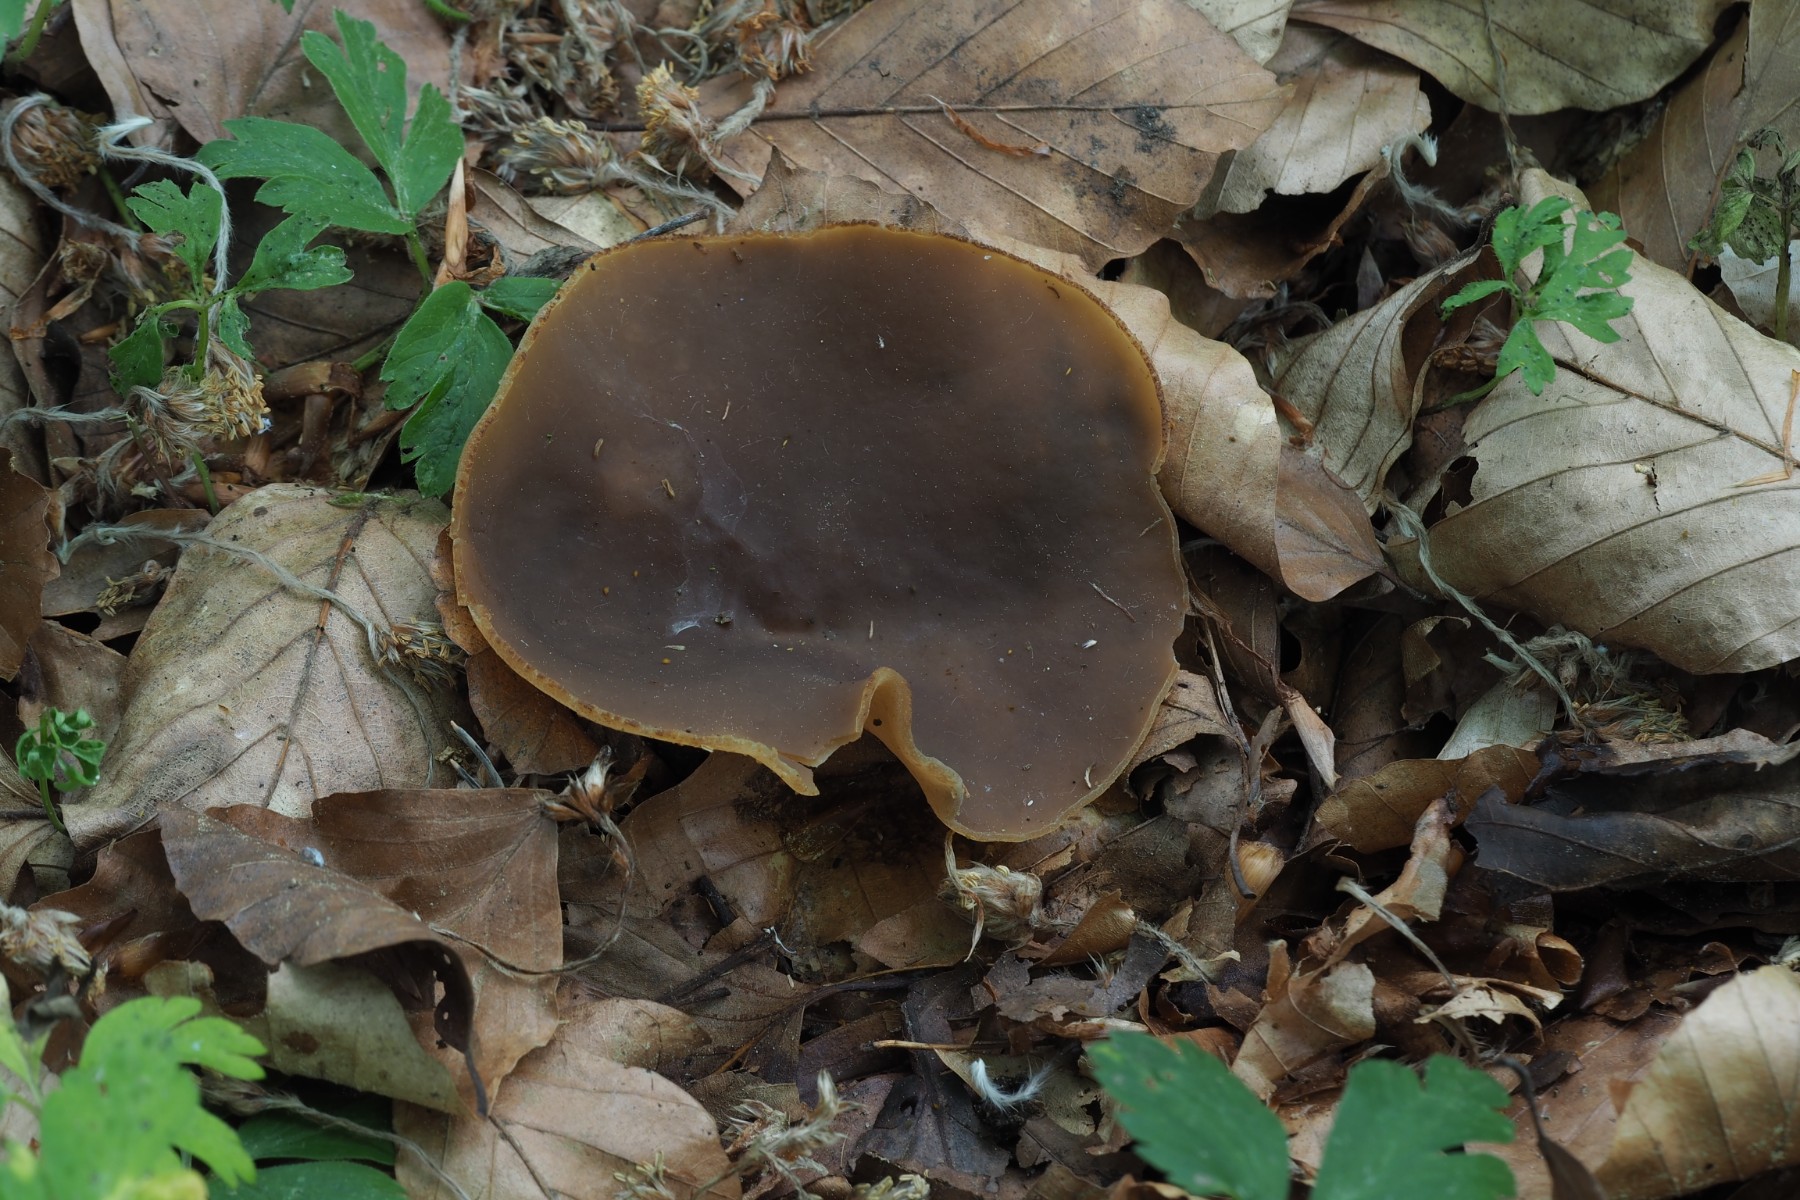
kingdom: Fungi
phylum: Ascomycota
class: Pezizomycetes
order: Pezizales
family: Pezizaceae
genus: Peziza
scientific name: Peziza arvernensis
